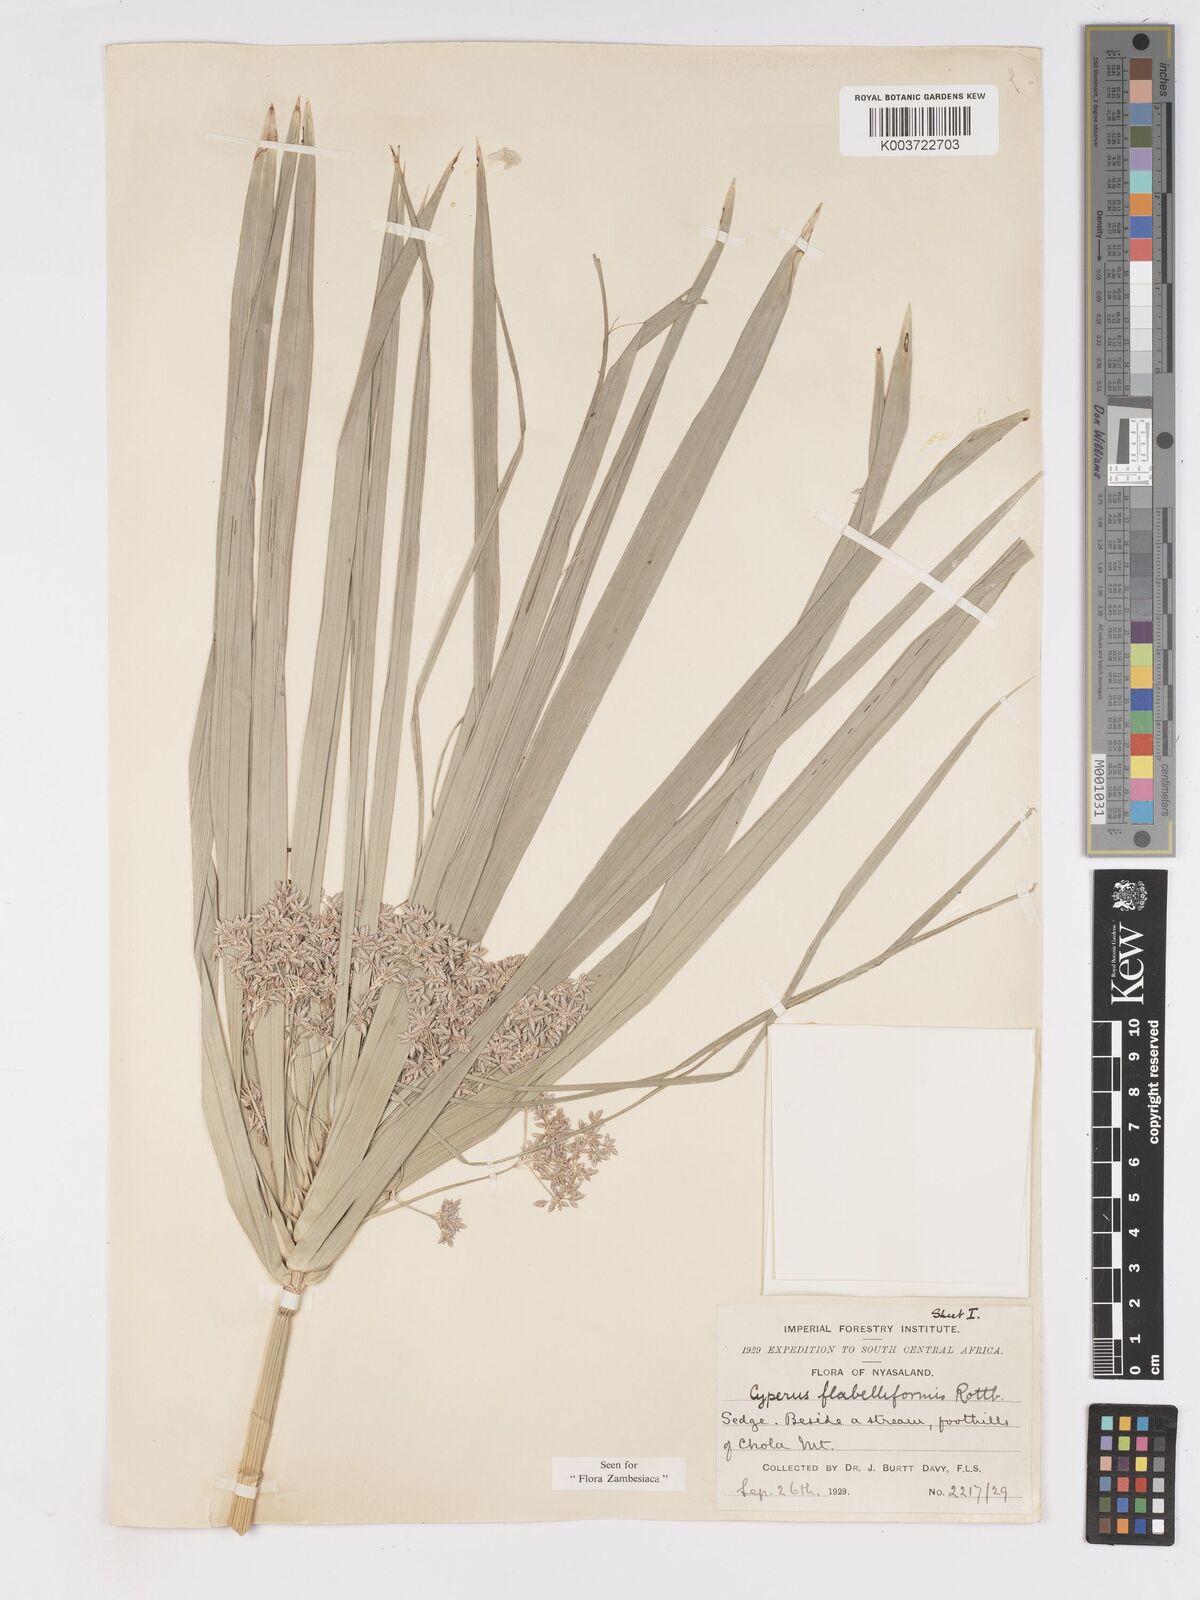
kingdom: Plantae
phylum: Tracheophyta
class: Liliopsida
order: Poales
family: Cyperaceae
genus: Cyperus
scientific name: Cyperus alternifolius
